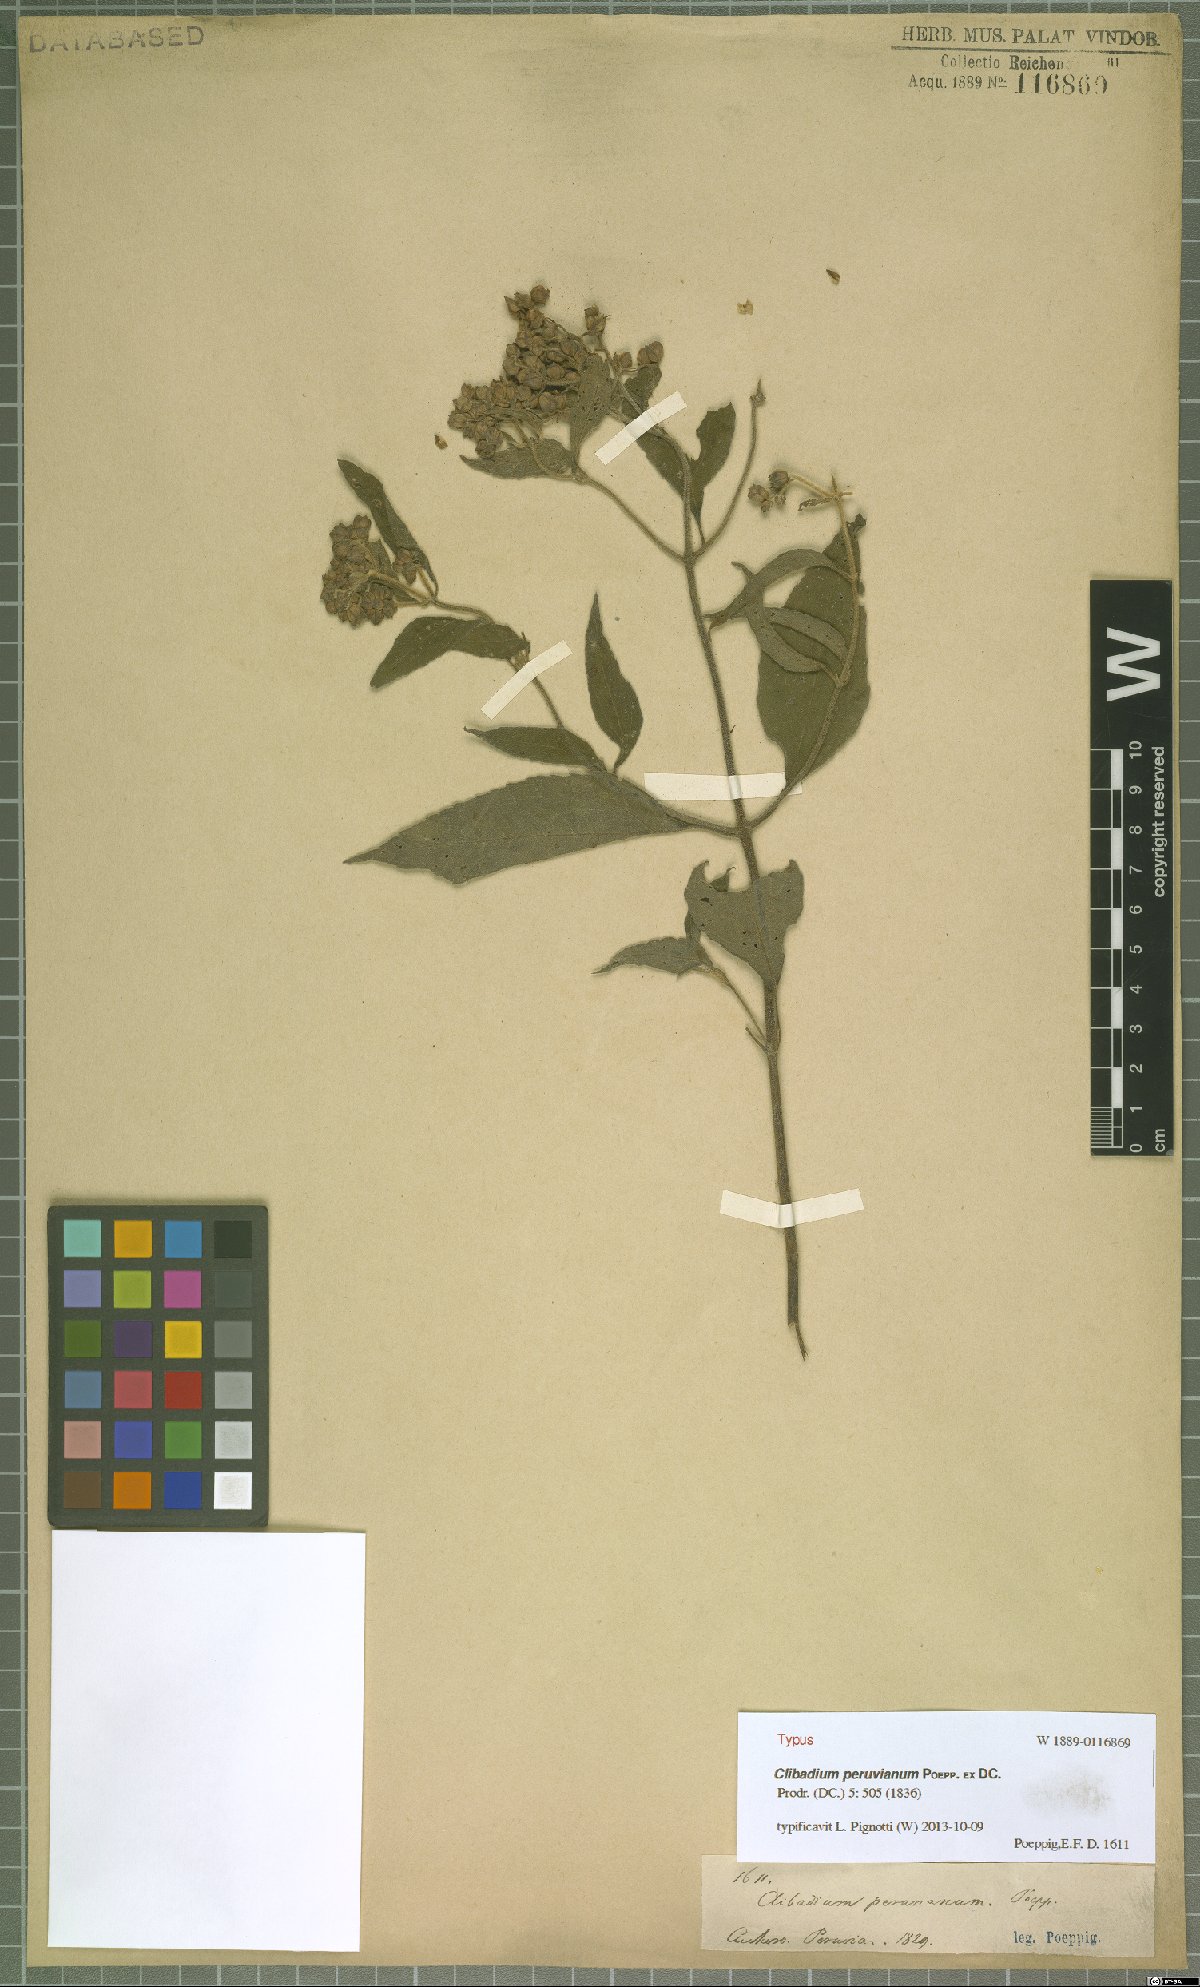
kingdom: Plantae
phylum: Tracheophyta
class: Magnoliopsida
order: Asterales
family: Asteraceae
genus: Clibadium
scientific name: Clibadium peruvianum
